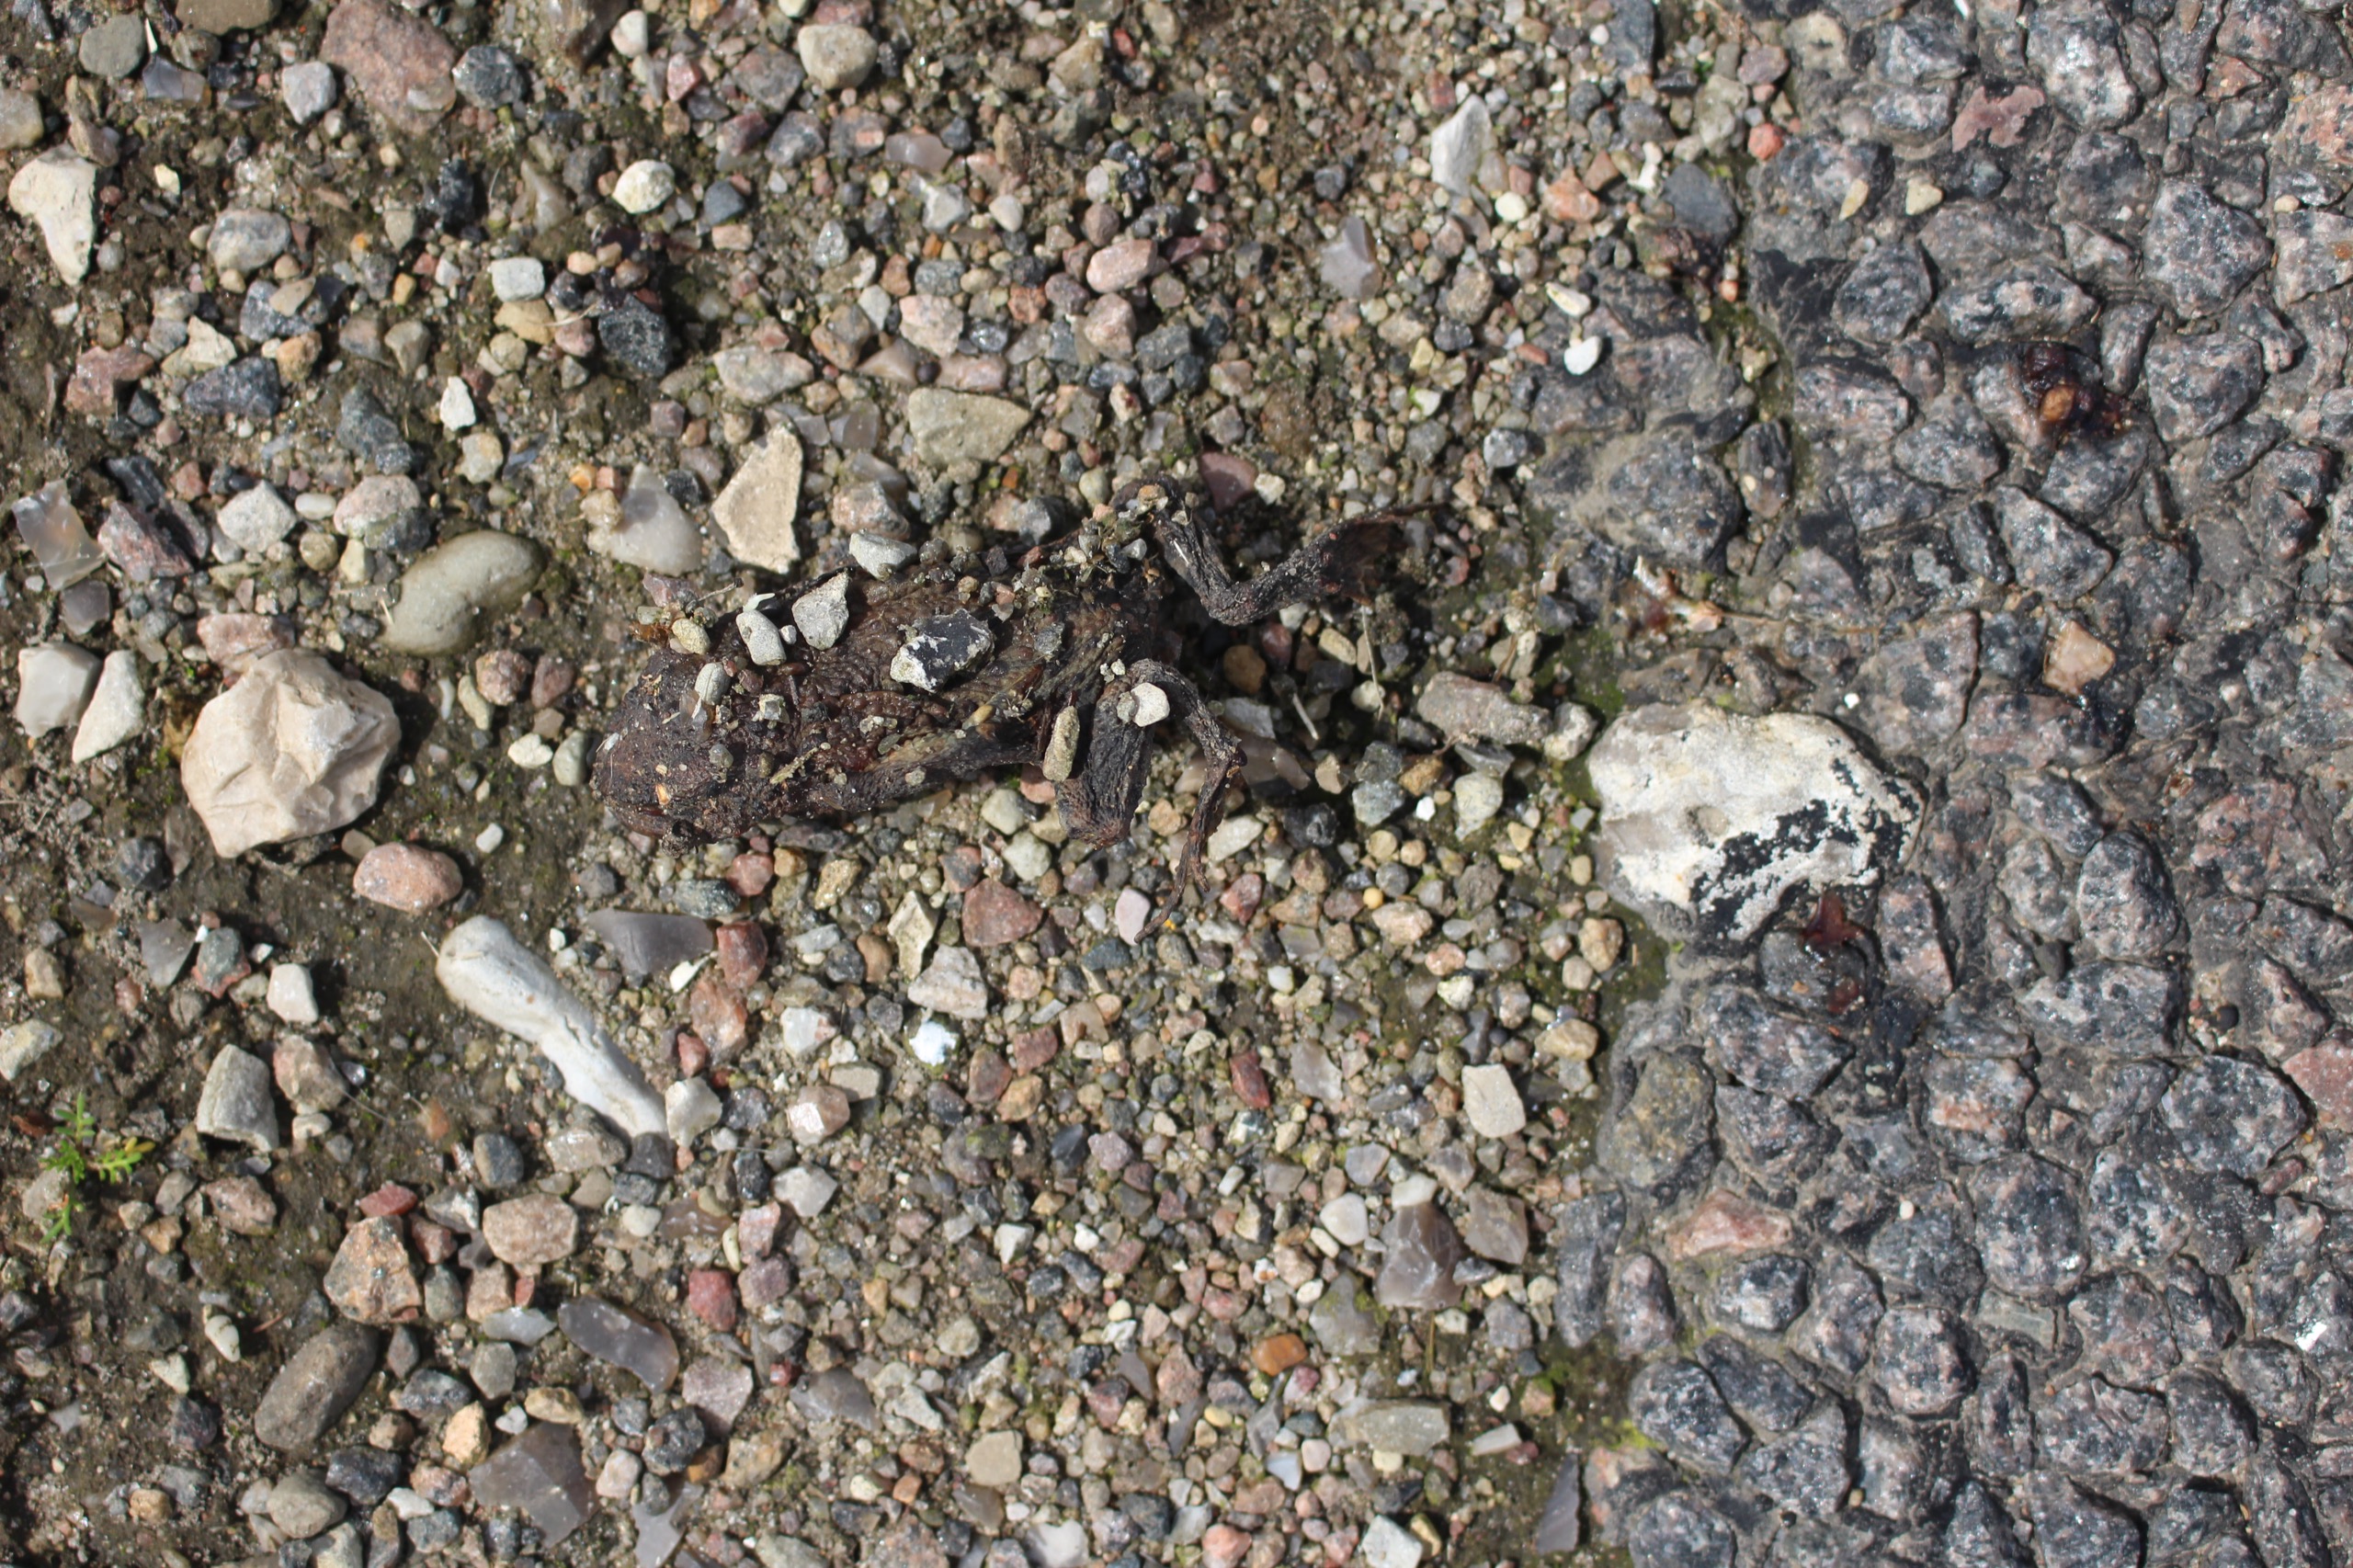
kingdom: Animalia
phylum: Chordata
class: Amphibia
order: Anura
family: Bufonidae
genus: Bufo
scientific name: Bufo bufo
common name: Skrubtudse
